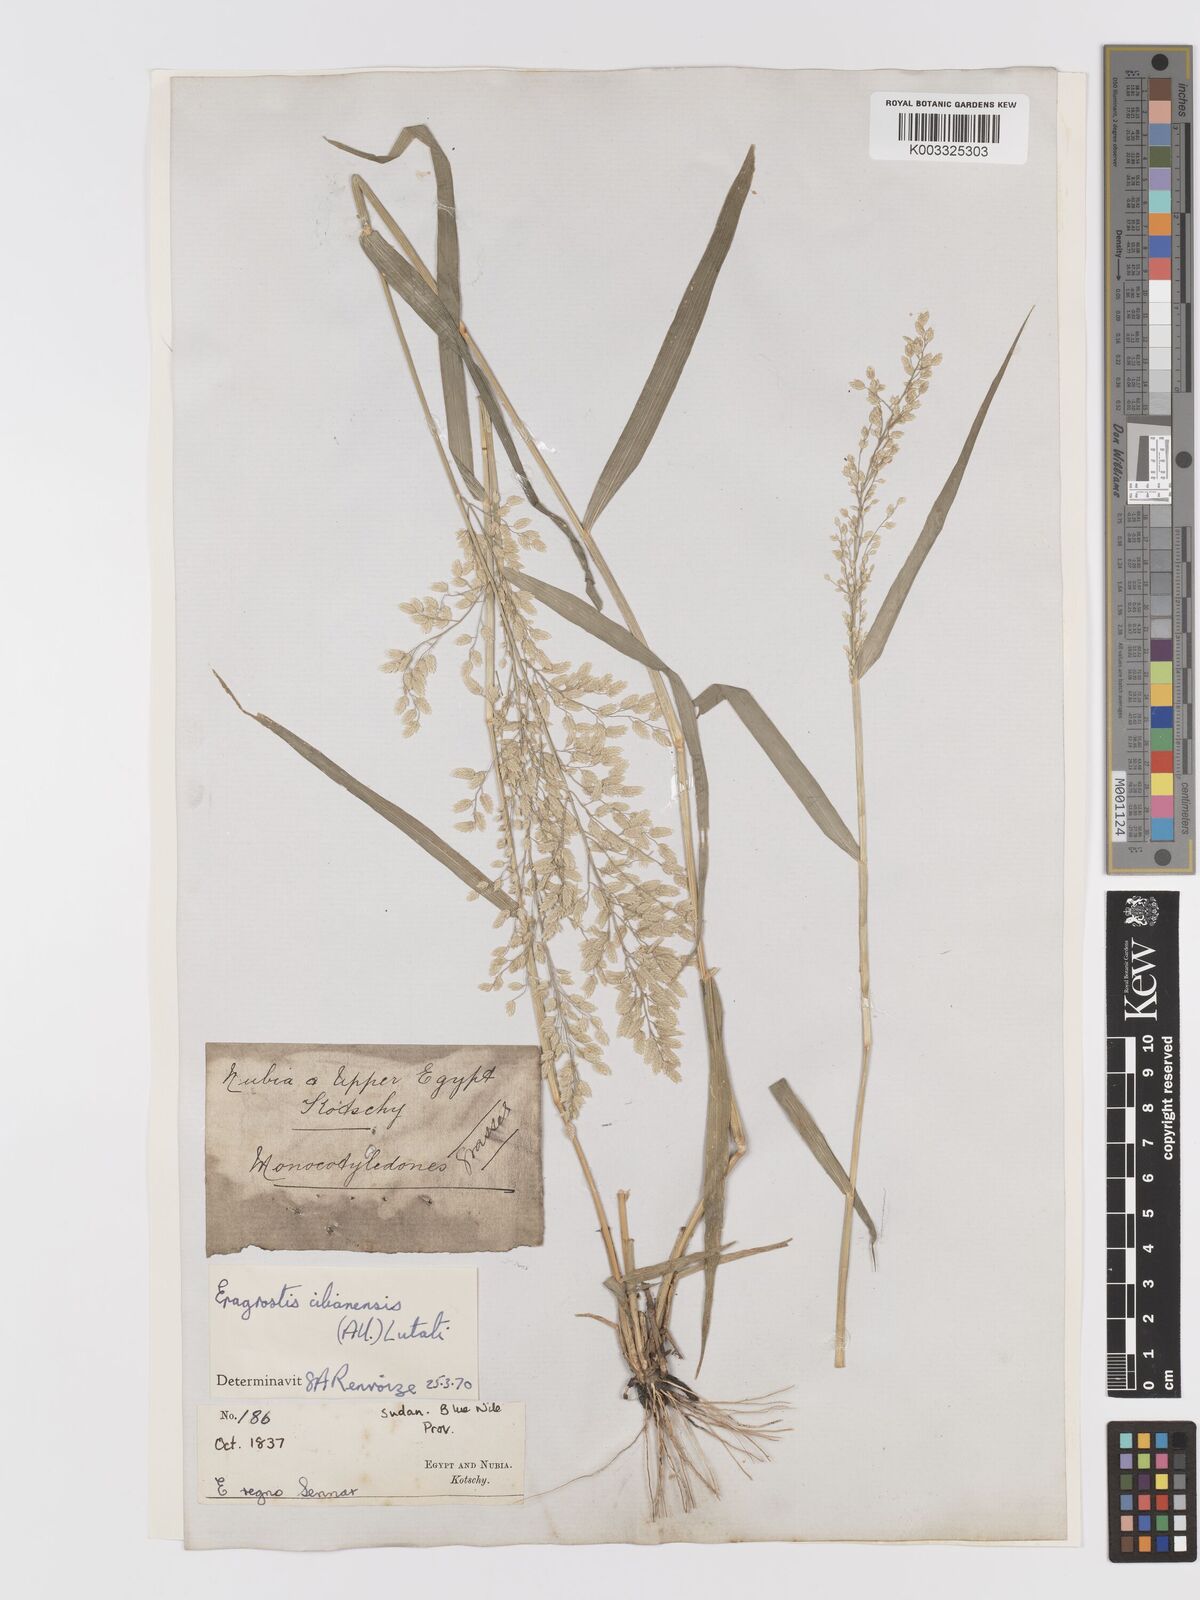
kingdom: Plantae
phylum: Tracheophyta
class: Liliopsida
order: Poales
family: Poaceae
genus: Eragrostis
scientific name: Eragrostis cilianensis
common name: Stinkgrass
